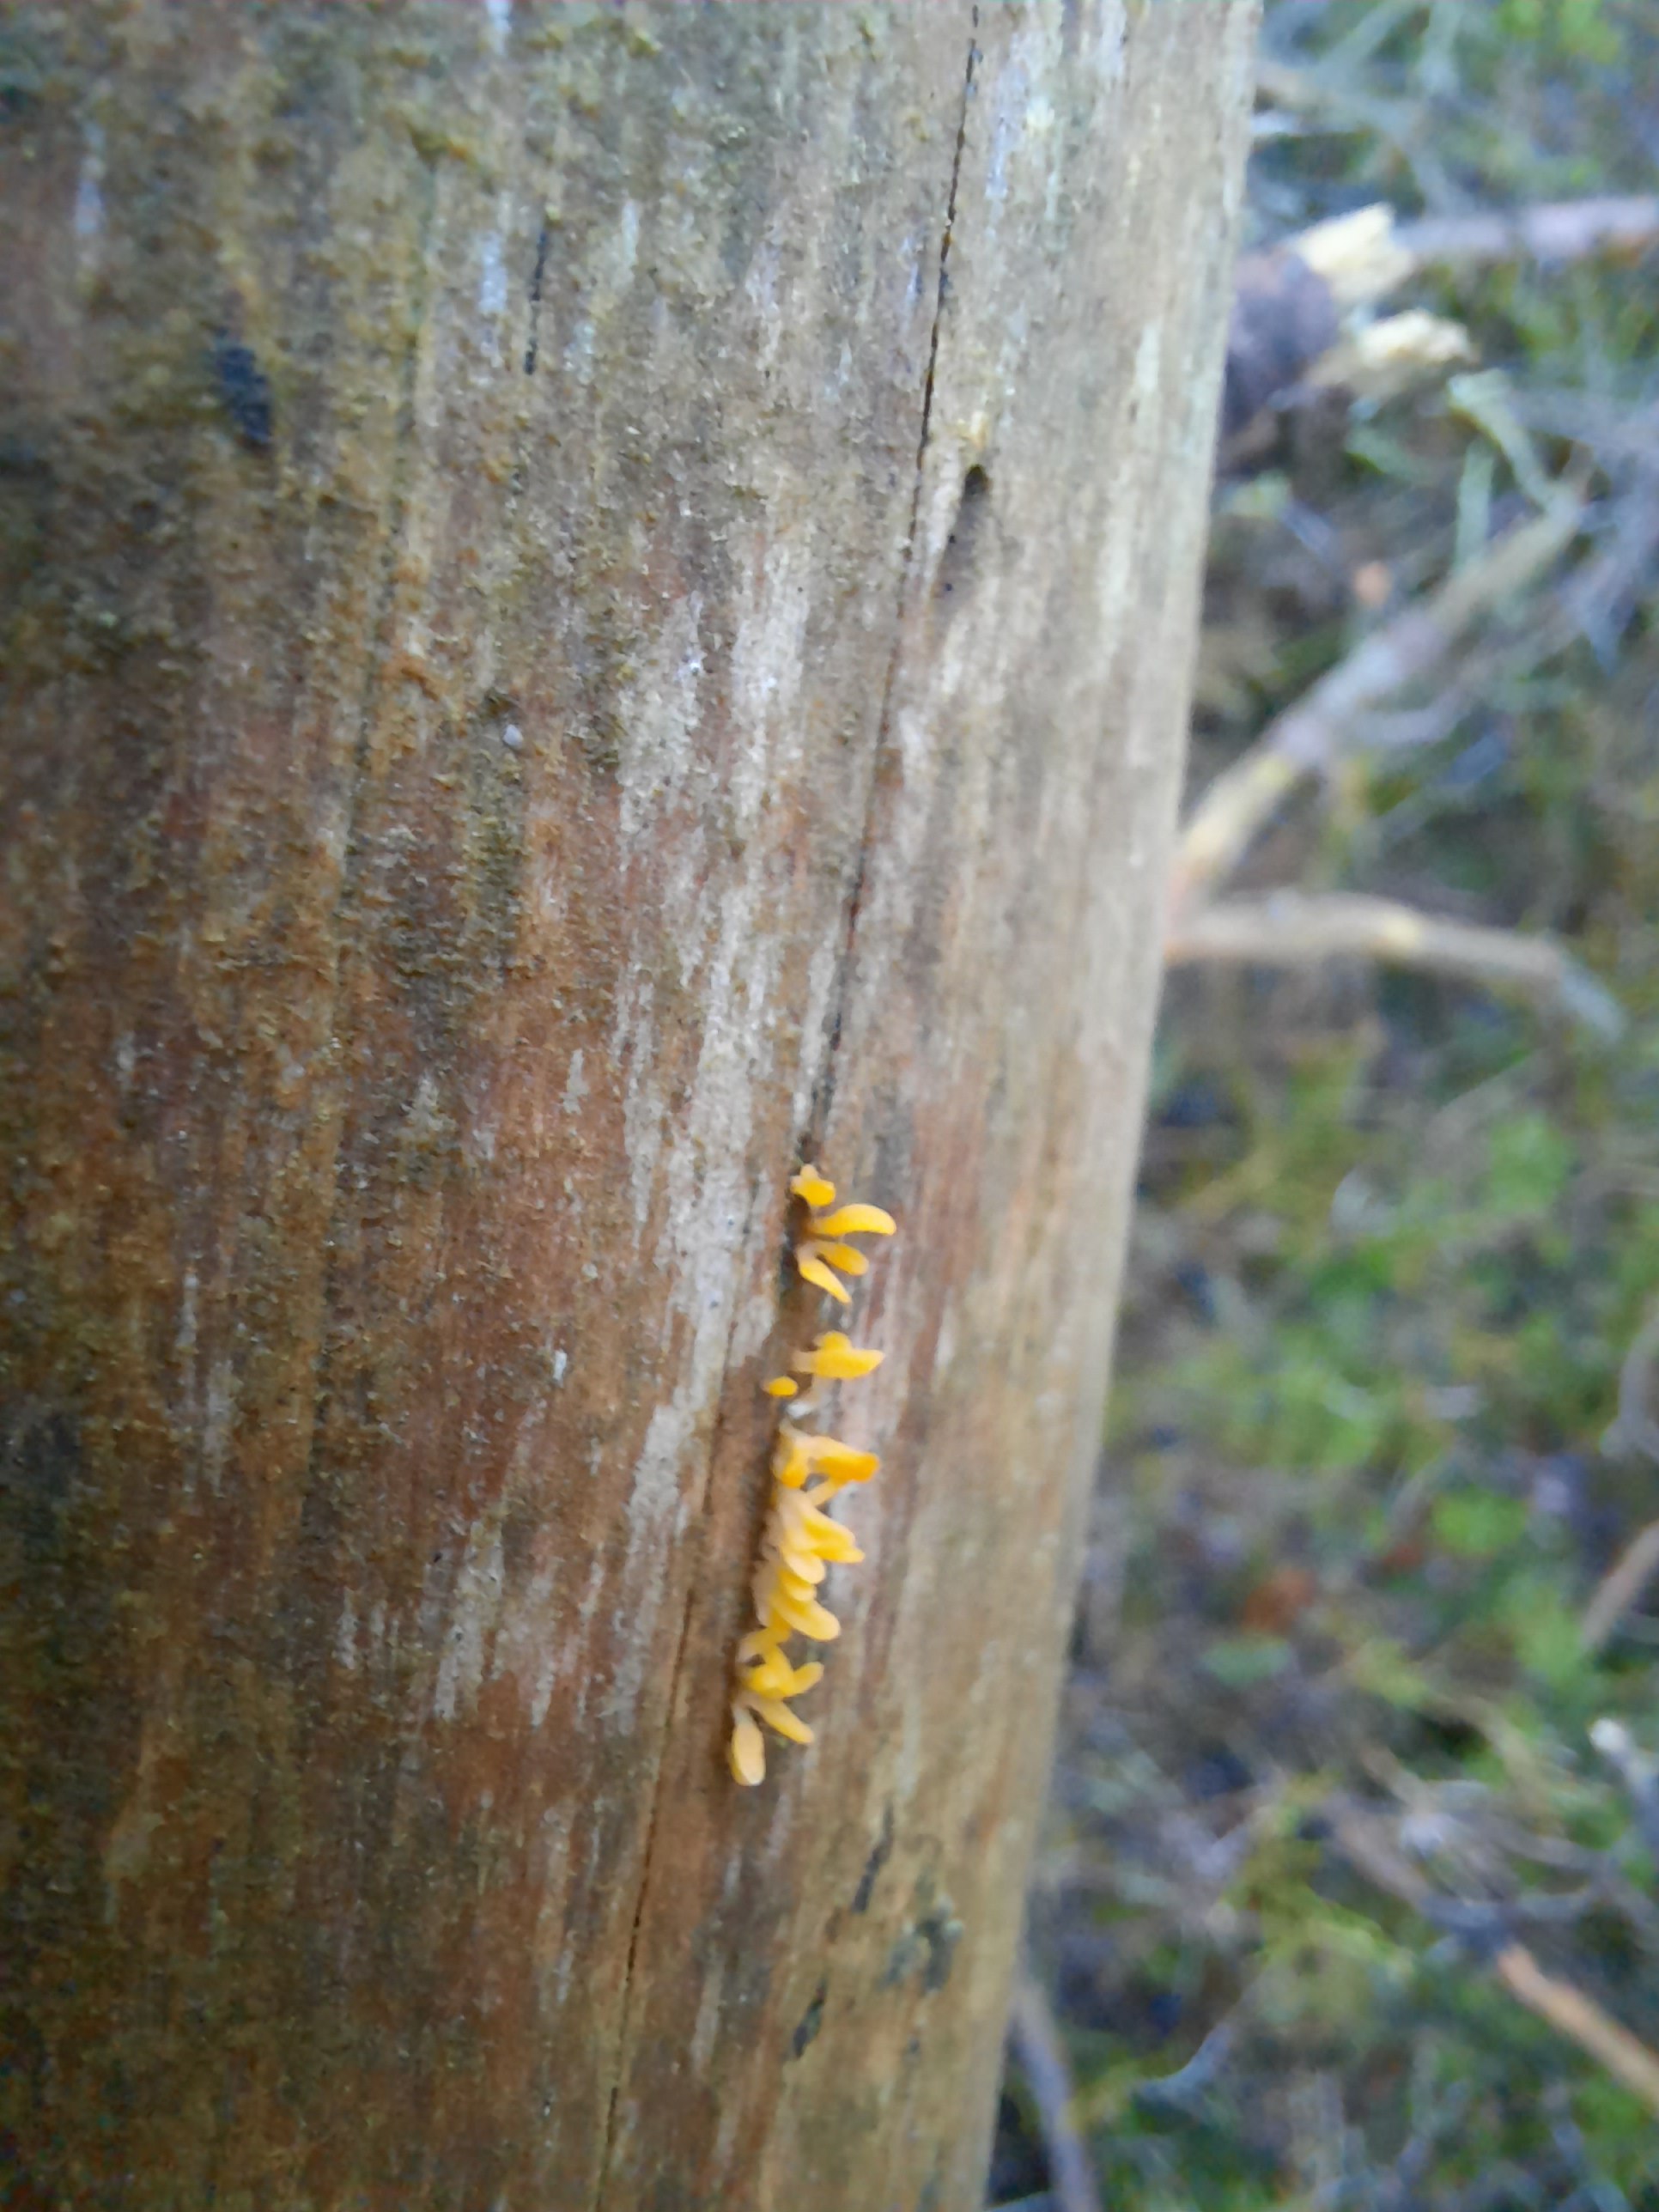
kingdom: Fungi
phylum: Basidiomycota
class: Dacrymycetes
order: Dacrymycetales
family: Dacrymycetaceae
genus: Calocera
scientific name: Calocera furcata
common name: fyrre-guldgaffel
